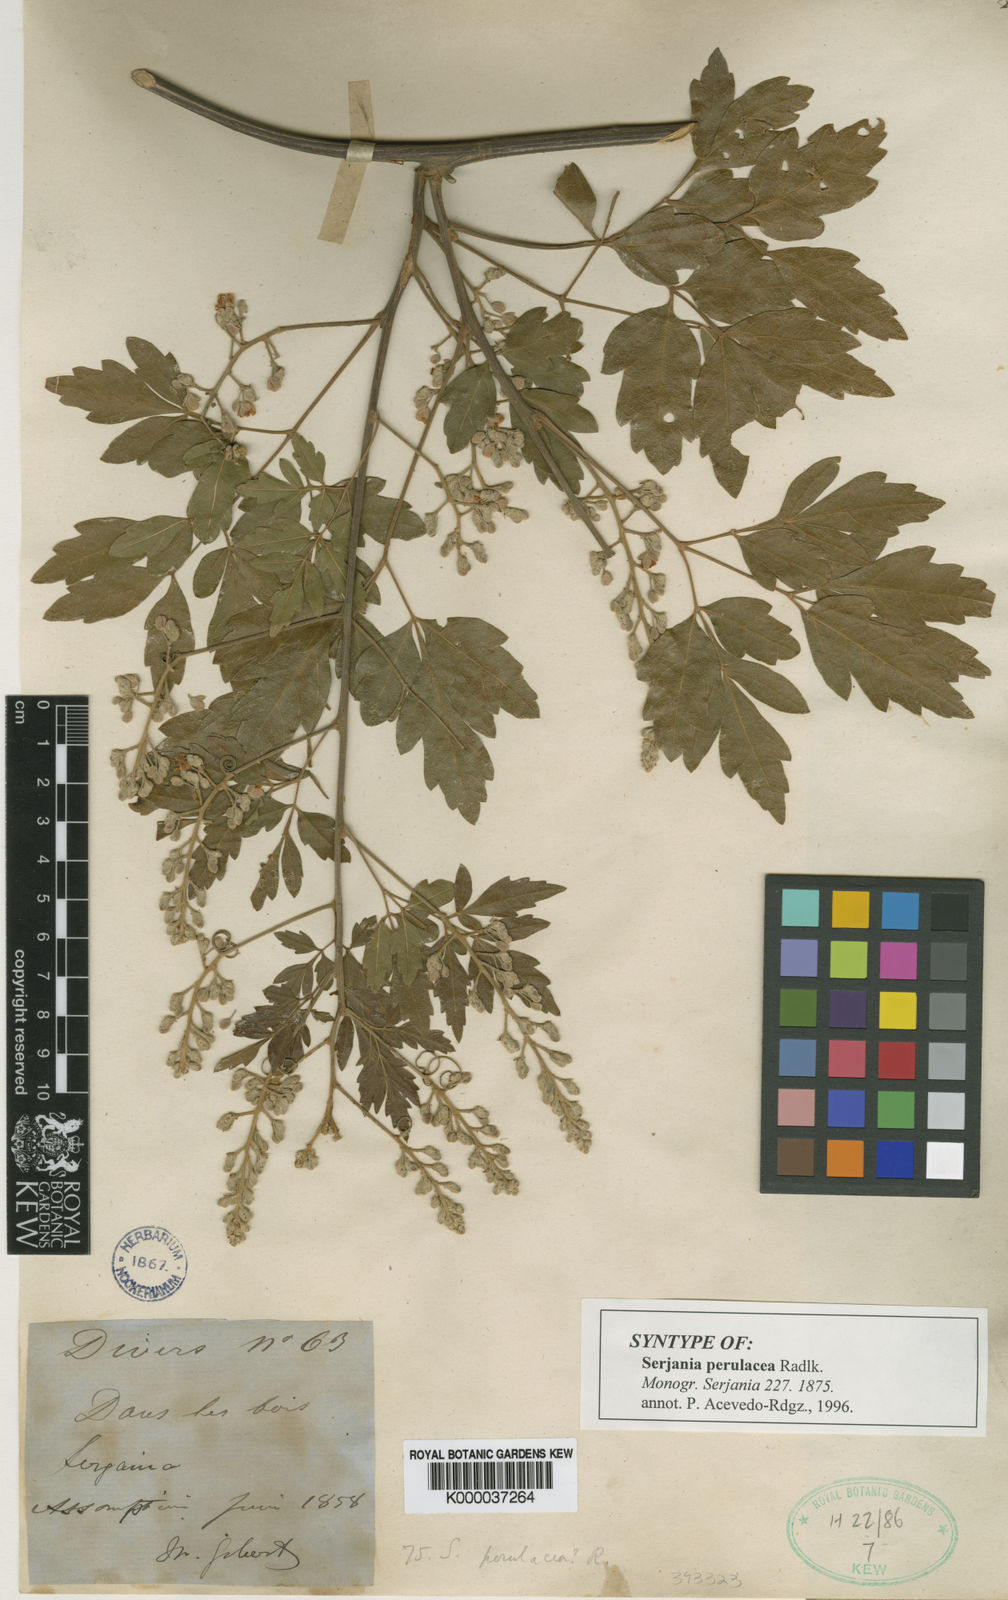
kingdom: Plantae
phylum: Tracheophyta
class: Magnoliopsida
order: Sapindales
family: Sapindaceae
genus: Serjania
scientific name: Serjania perulacea
